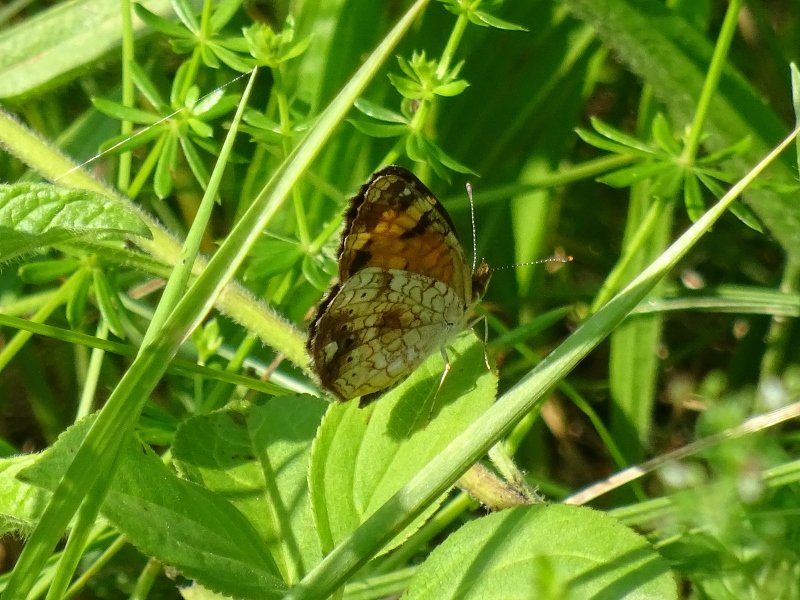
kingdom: Animalia
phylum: Arthropoda
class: Insecta
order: Lepidoptera
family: Nymphalidae
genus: Phyciodes
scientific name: Phyciodes tharos
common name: Northern Crescent
